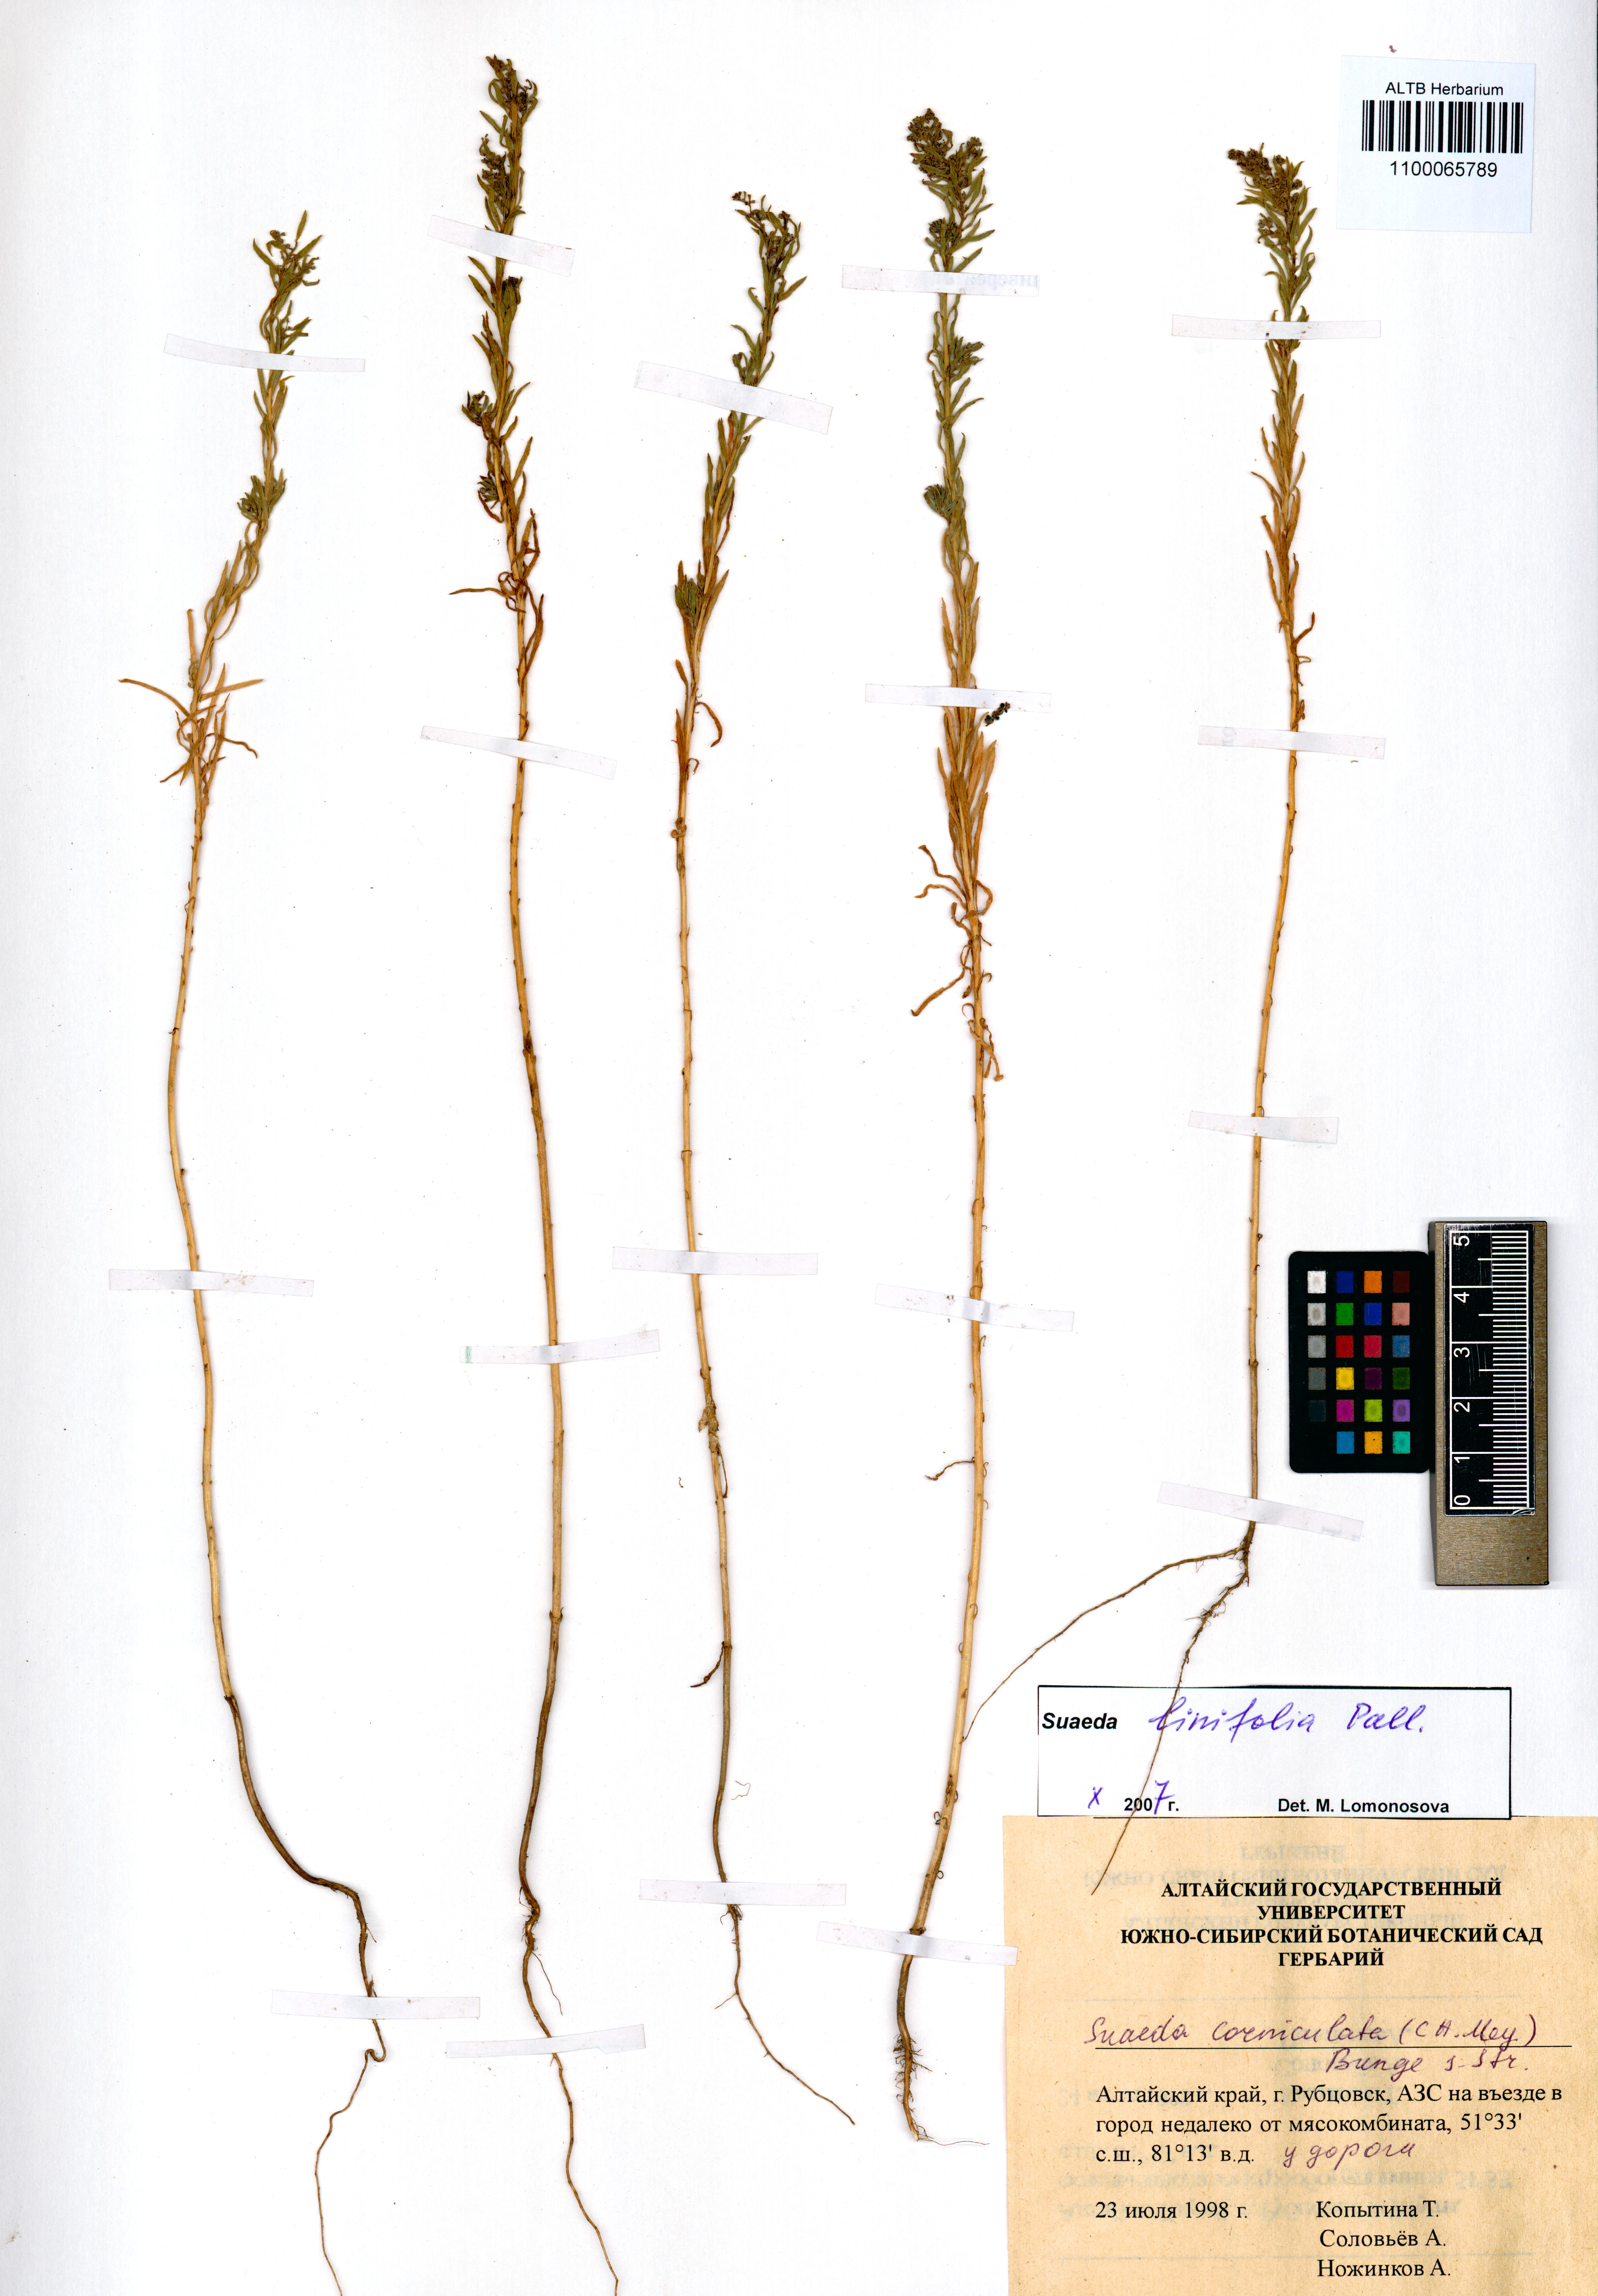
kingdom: Plantae
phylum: Tracheophyta
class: Magnoliopsida
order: Caryophyllales
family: Amaranthaceae
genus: Suaeda
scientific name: Suaeda linifolia
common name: Pin-leaf seepweed
